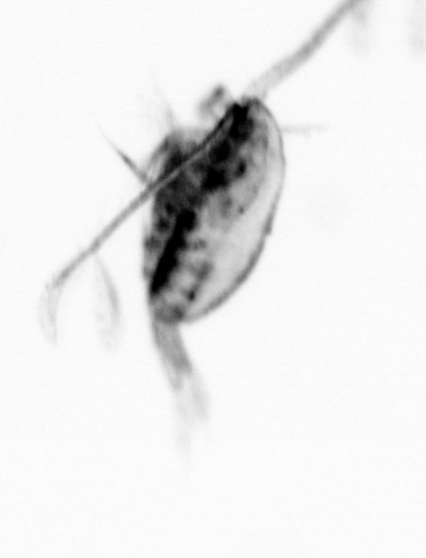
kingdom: Animalia
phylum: Arthropoda
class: Copepoda
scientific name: Copepoda
